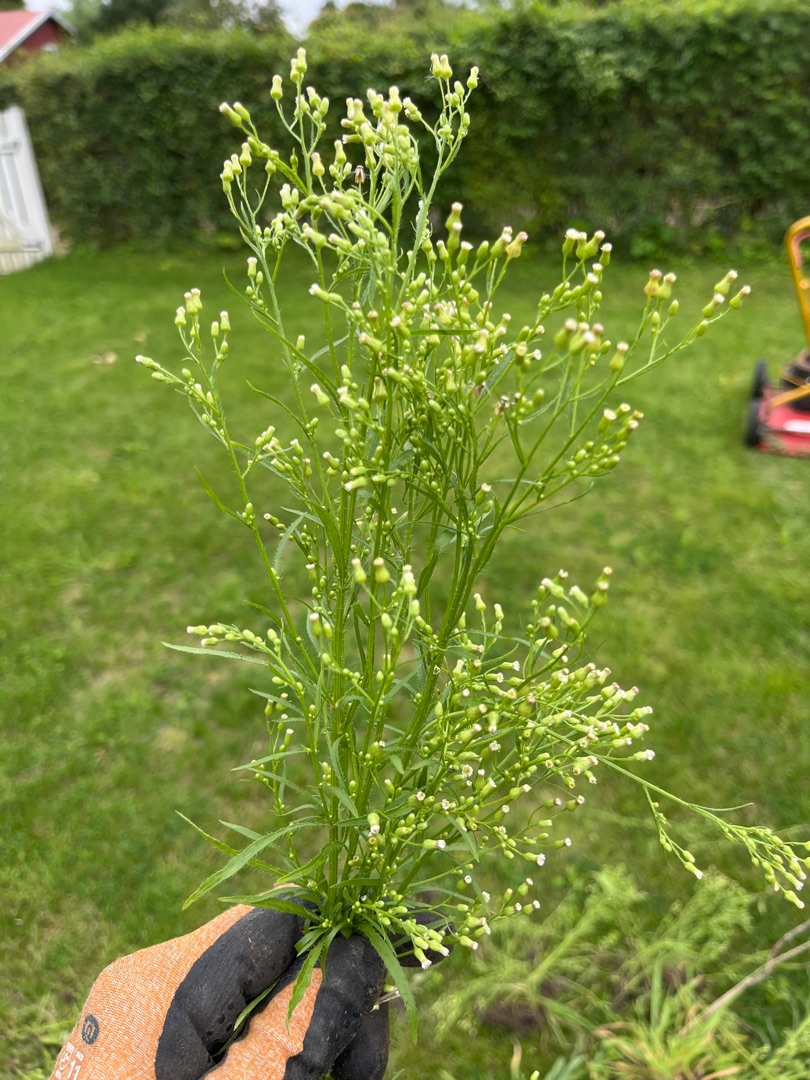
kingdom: Plantae
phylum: Tracheophyta
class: Magnoliopsida
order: Asterales
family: Asteraceae
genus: Erigeron
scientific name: Erigeron canadensis
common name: Kanadisk bakkestjerne
